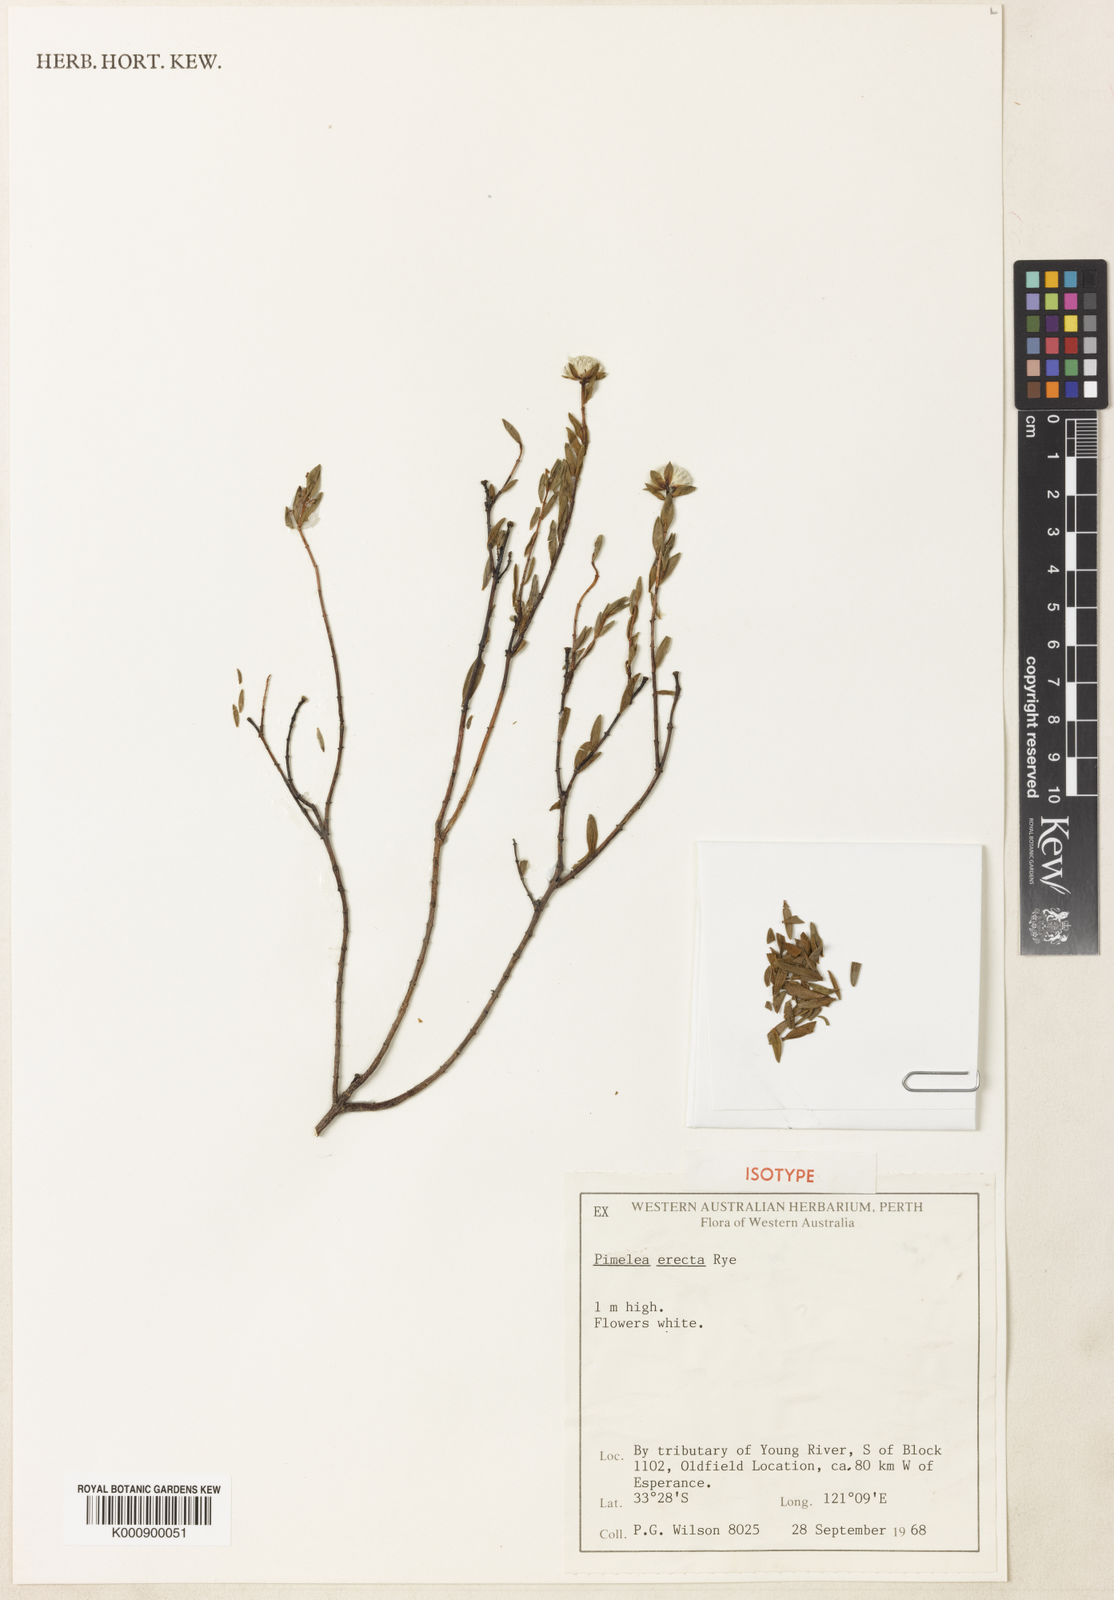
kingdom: Plantae
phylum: Tracheophyta
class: Magnoliopsida
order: Malvales
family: Thymelaeaceae
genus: Pimelea
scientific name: Pimelea erecta
